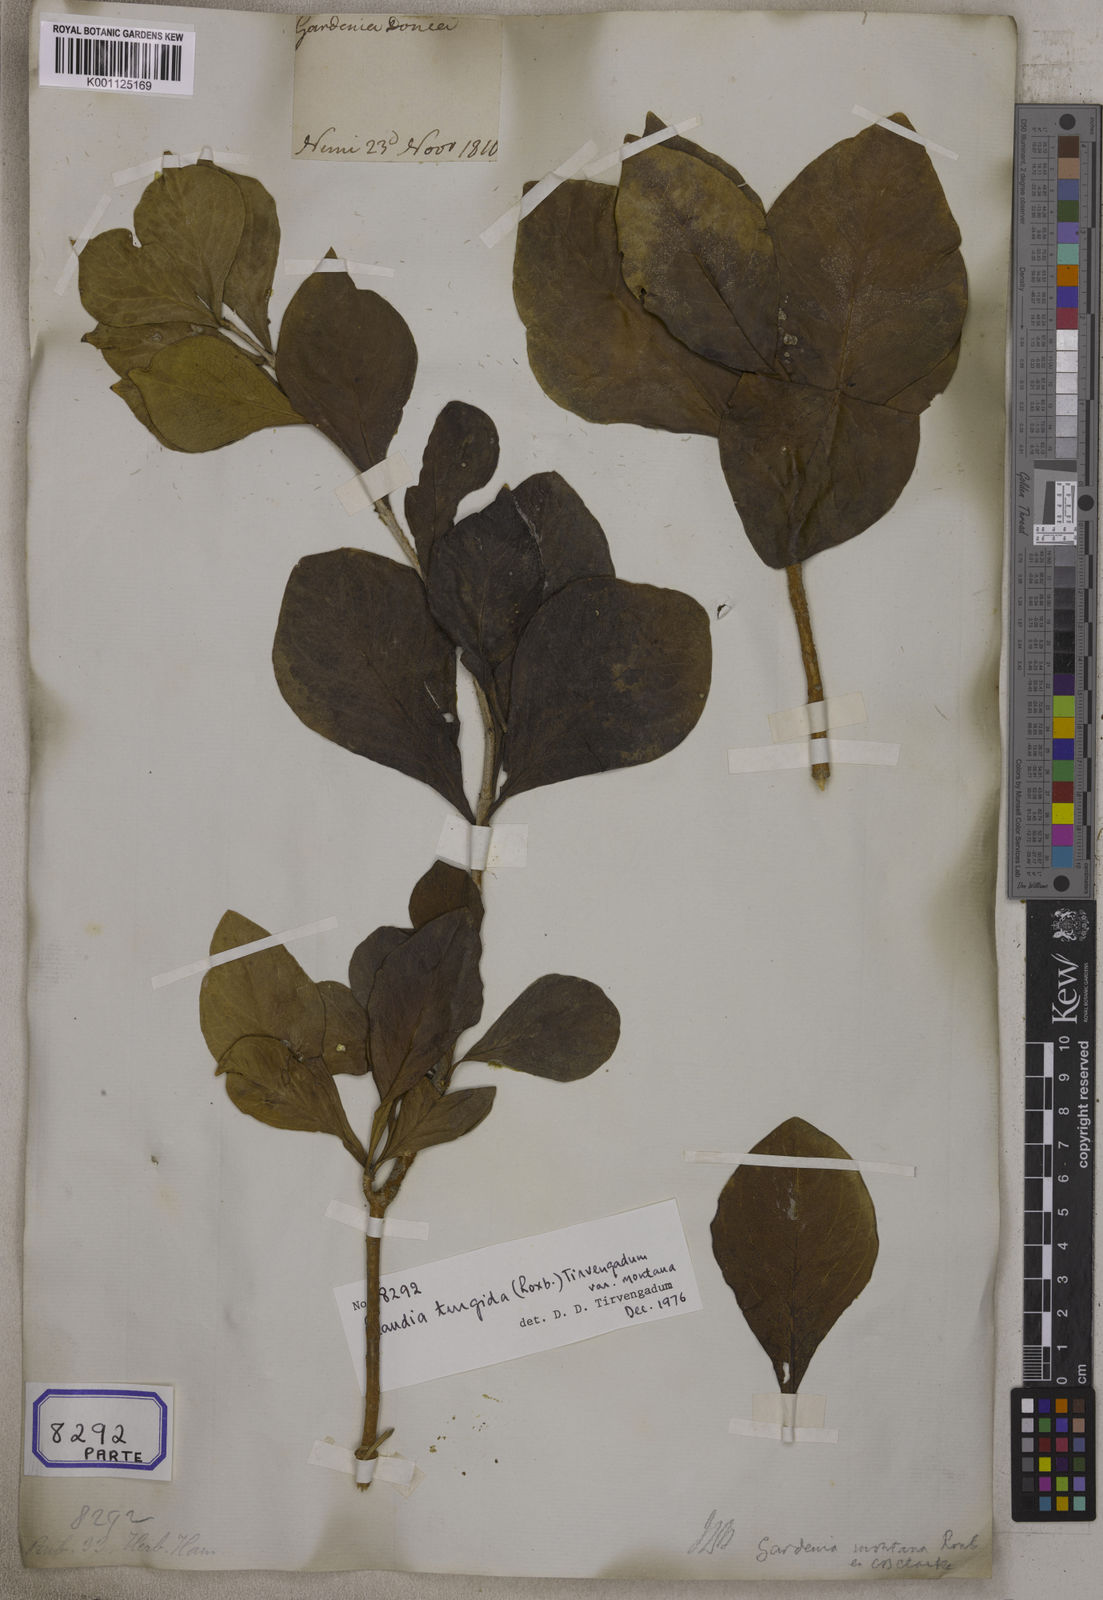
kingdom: Plantae
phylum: Tracheophyta
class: Magnoliopsida
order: Gentianales
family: Rubiaceae
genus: Gardenia
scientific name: Gardenia
